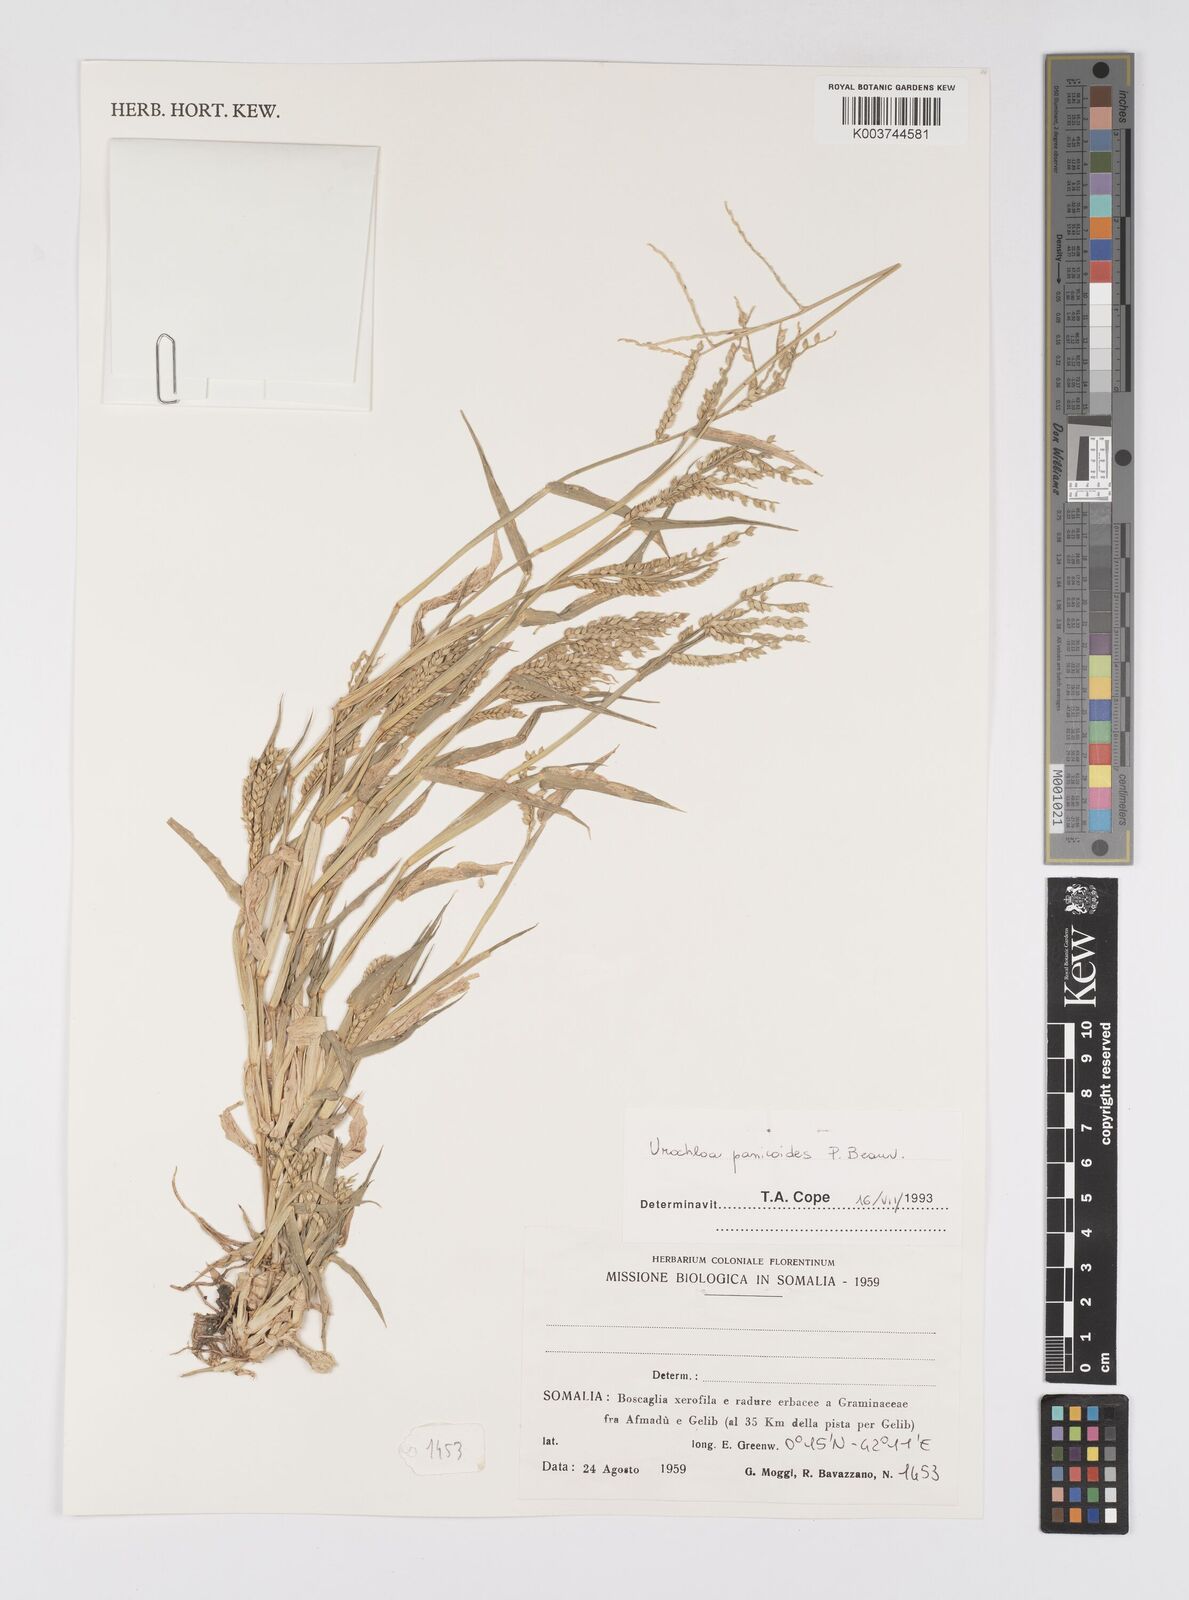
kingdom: Plantae
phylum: Tracheophyta
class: Liliopsida
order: Poales
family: Poaceae
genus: Urochloa
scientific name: Urochloa panicoides
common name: Sharp-flowered signal-grass
